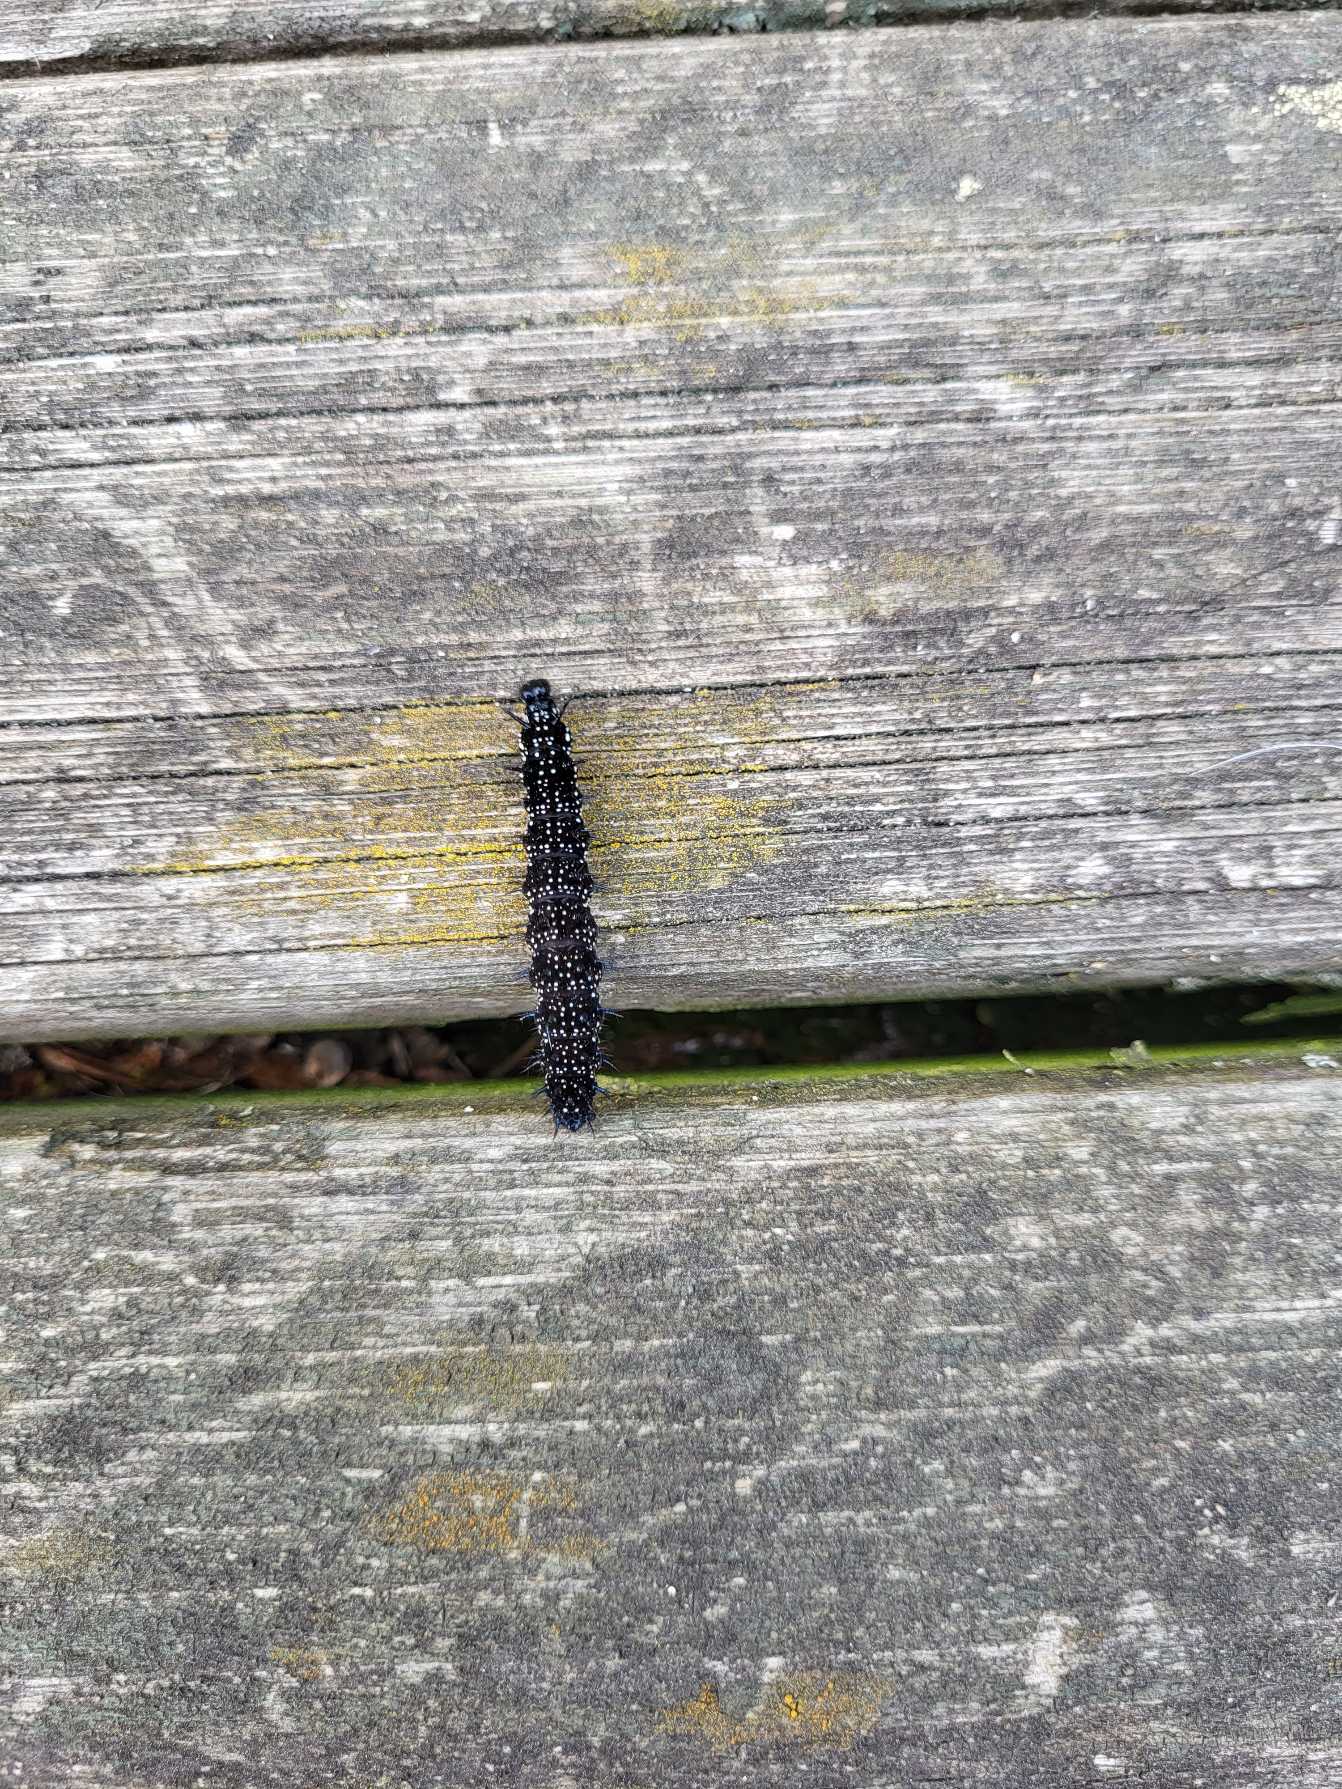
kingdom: Animalia
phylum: Arthropoda
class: Insecta
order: Lepidoptera
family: Nymphalidae
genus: Aglais
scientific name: Aglais io
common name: Dagpåfugleøje
